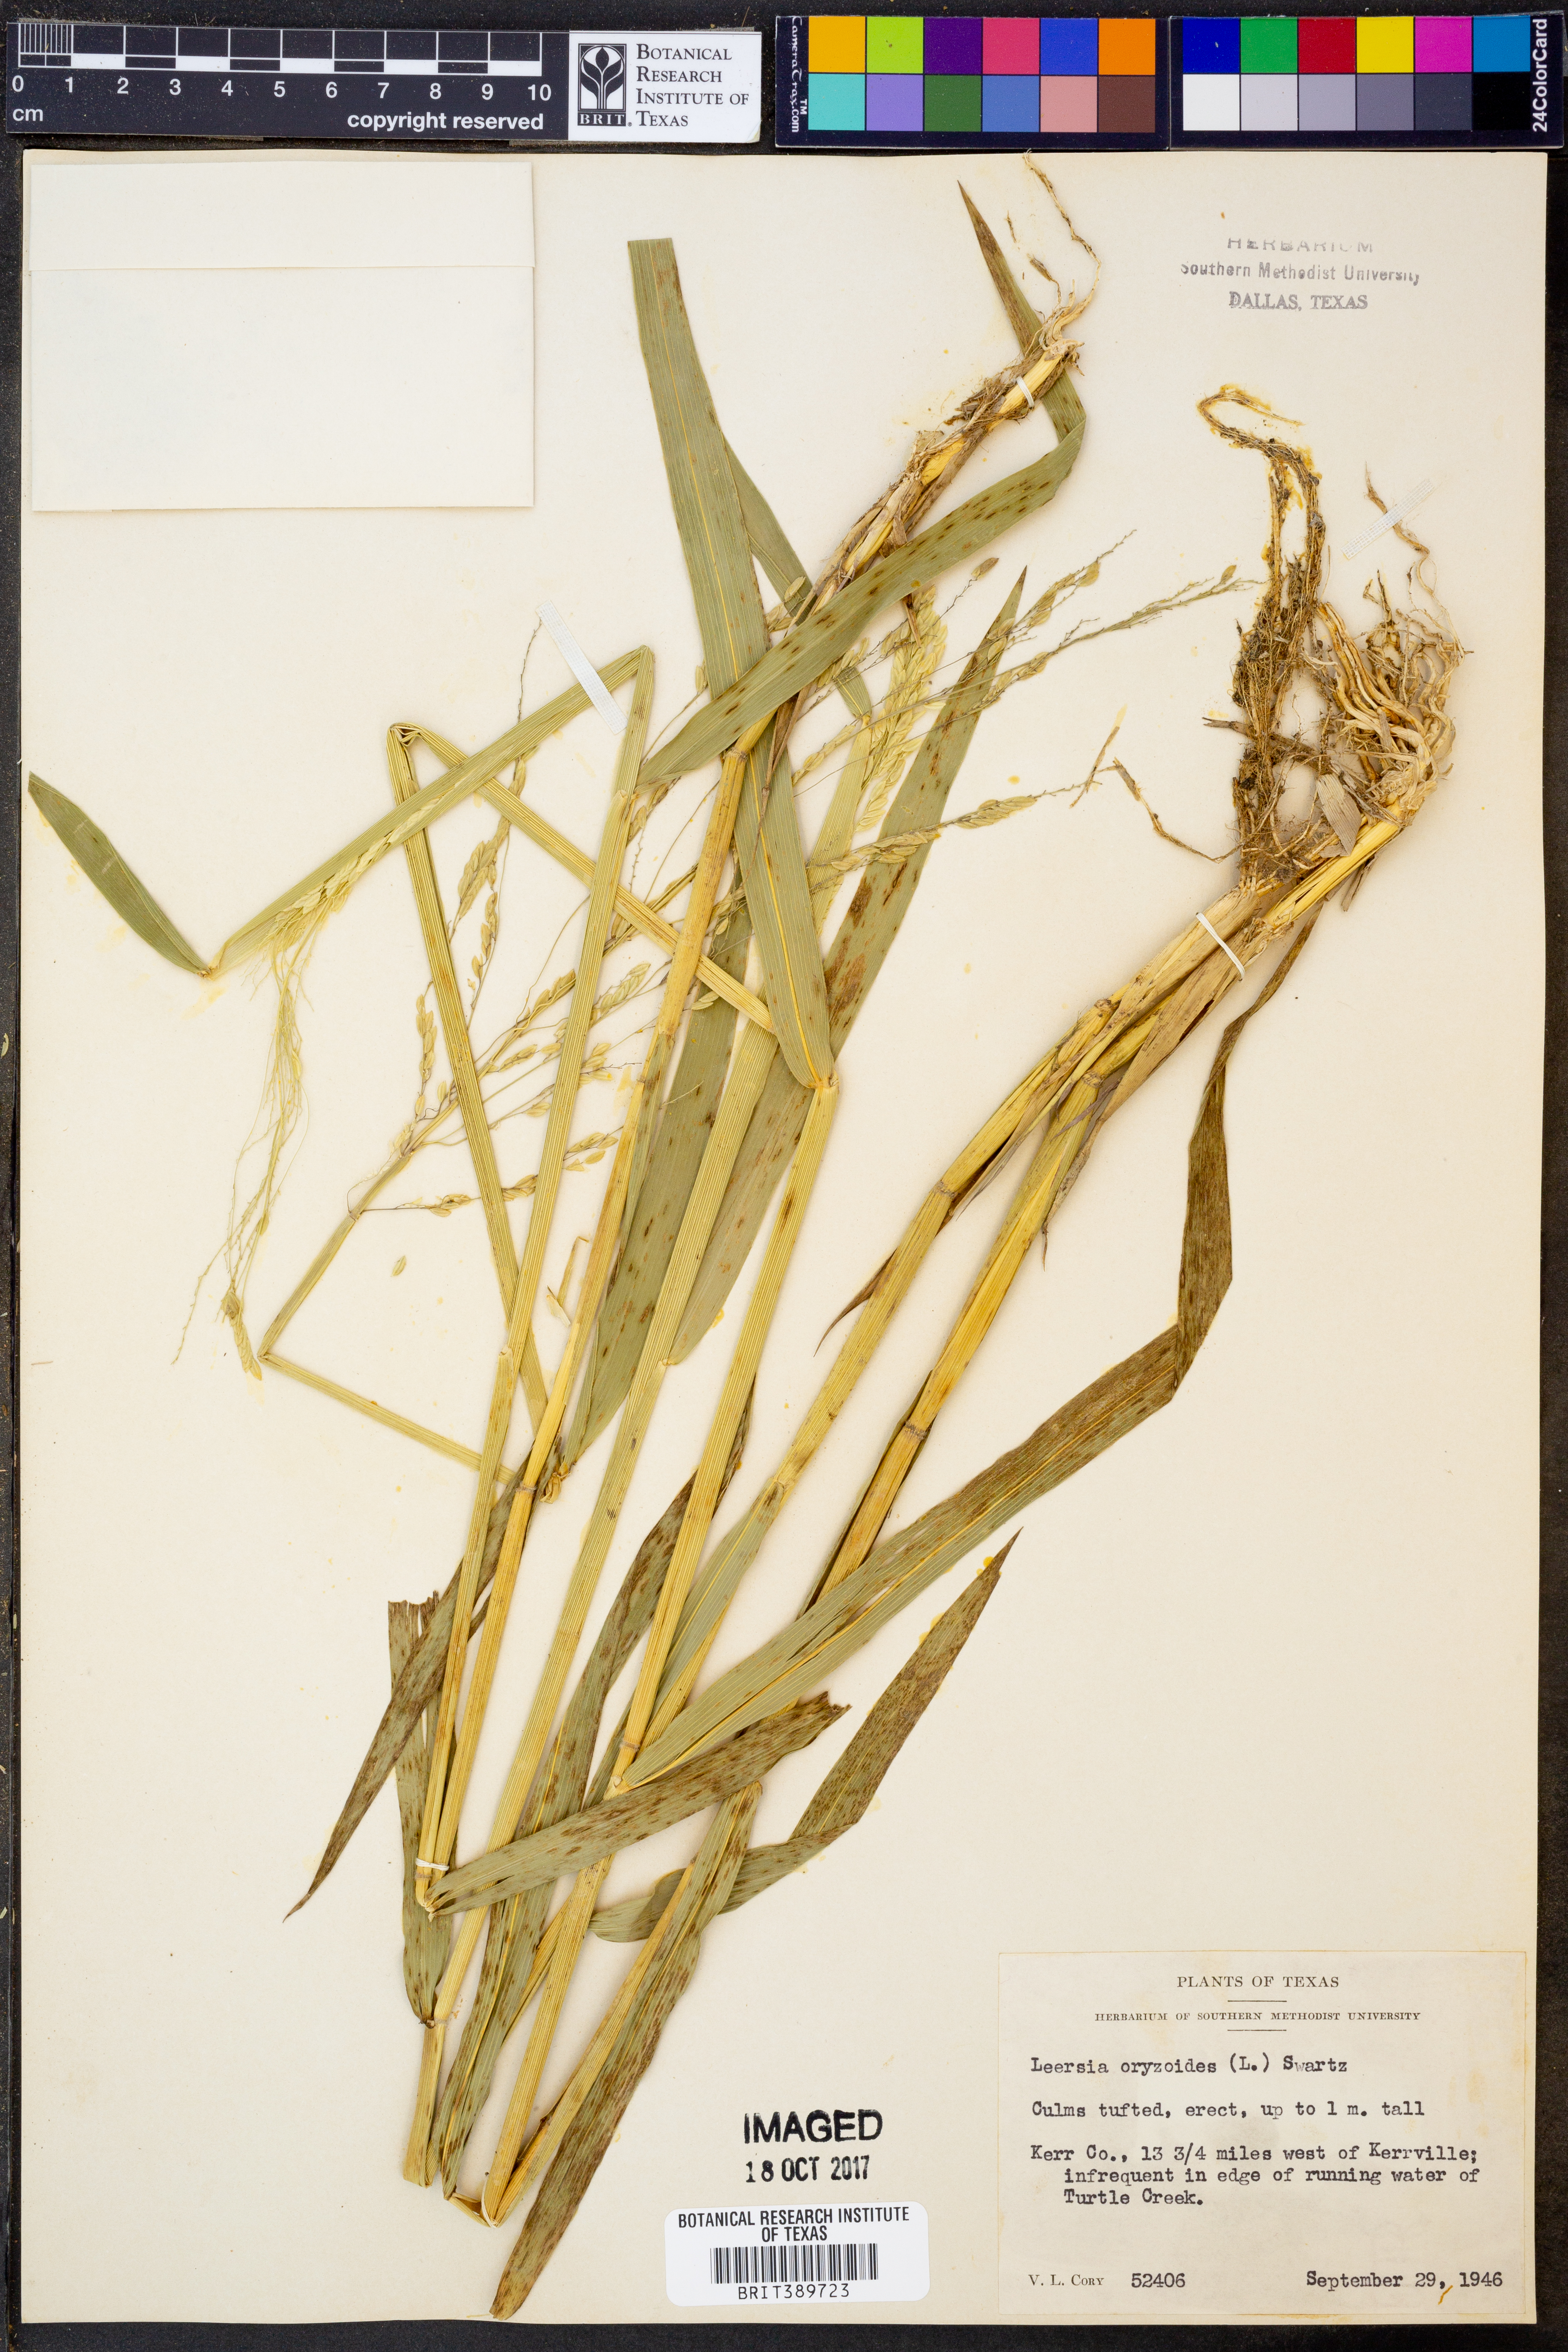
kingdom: Plantae
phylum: Tracheophyta
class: Liliopsida
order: Poales
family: Poaceae
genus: Leersia
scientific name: Leersia oryzoides
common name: Cut-grass
